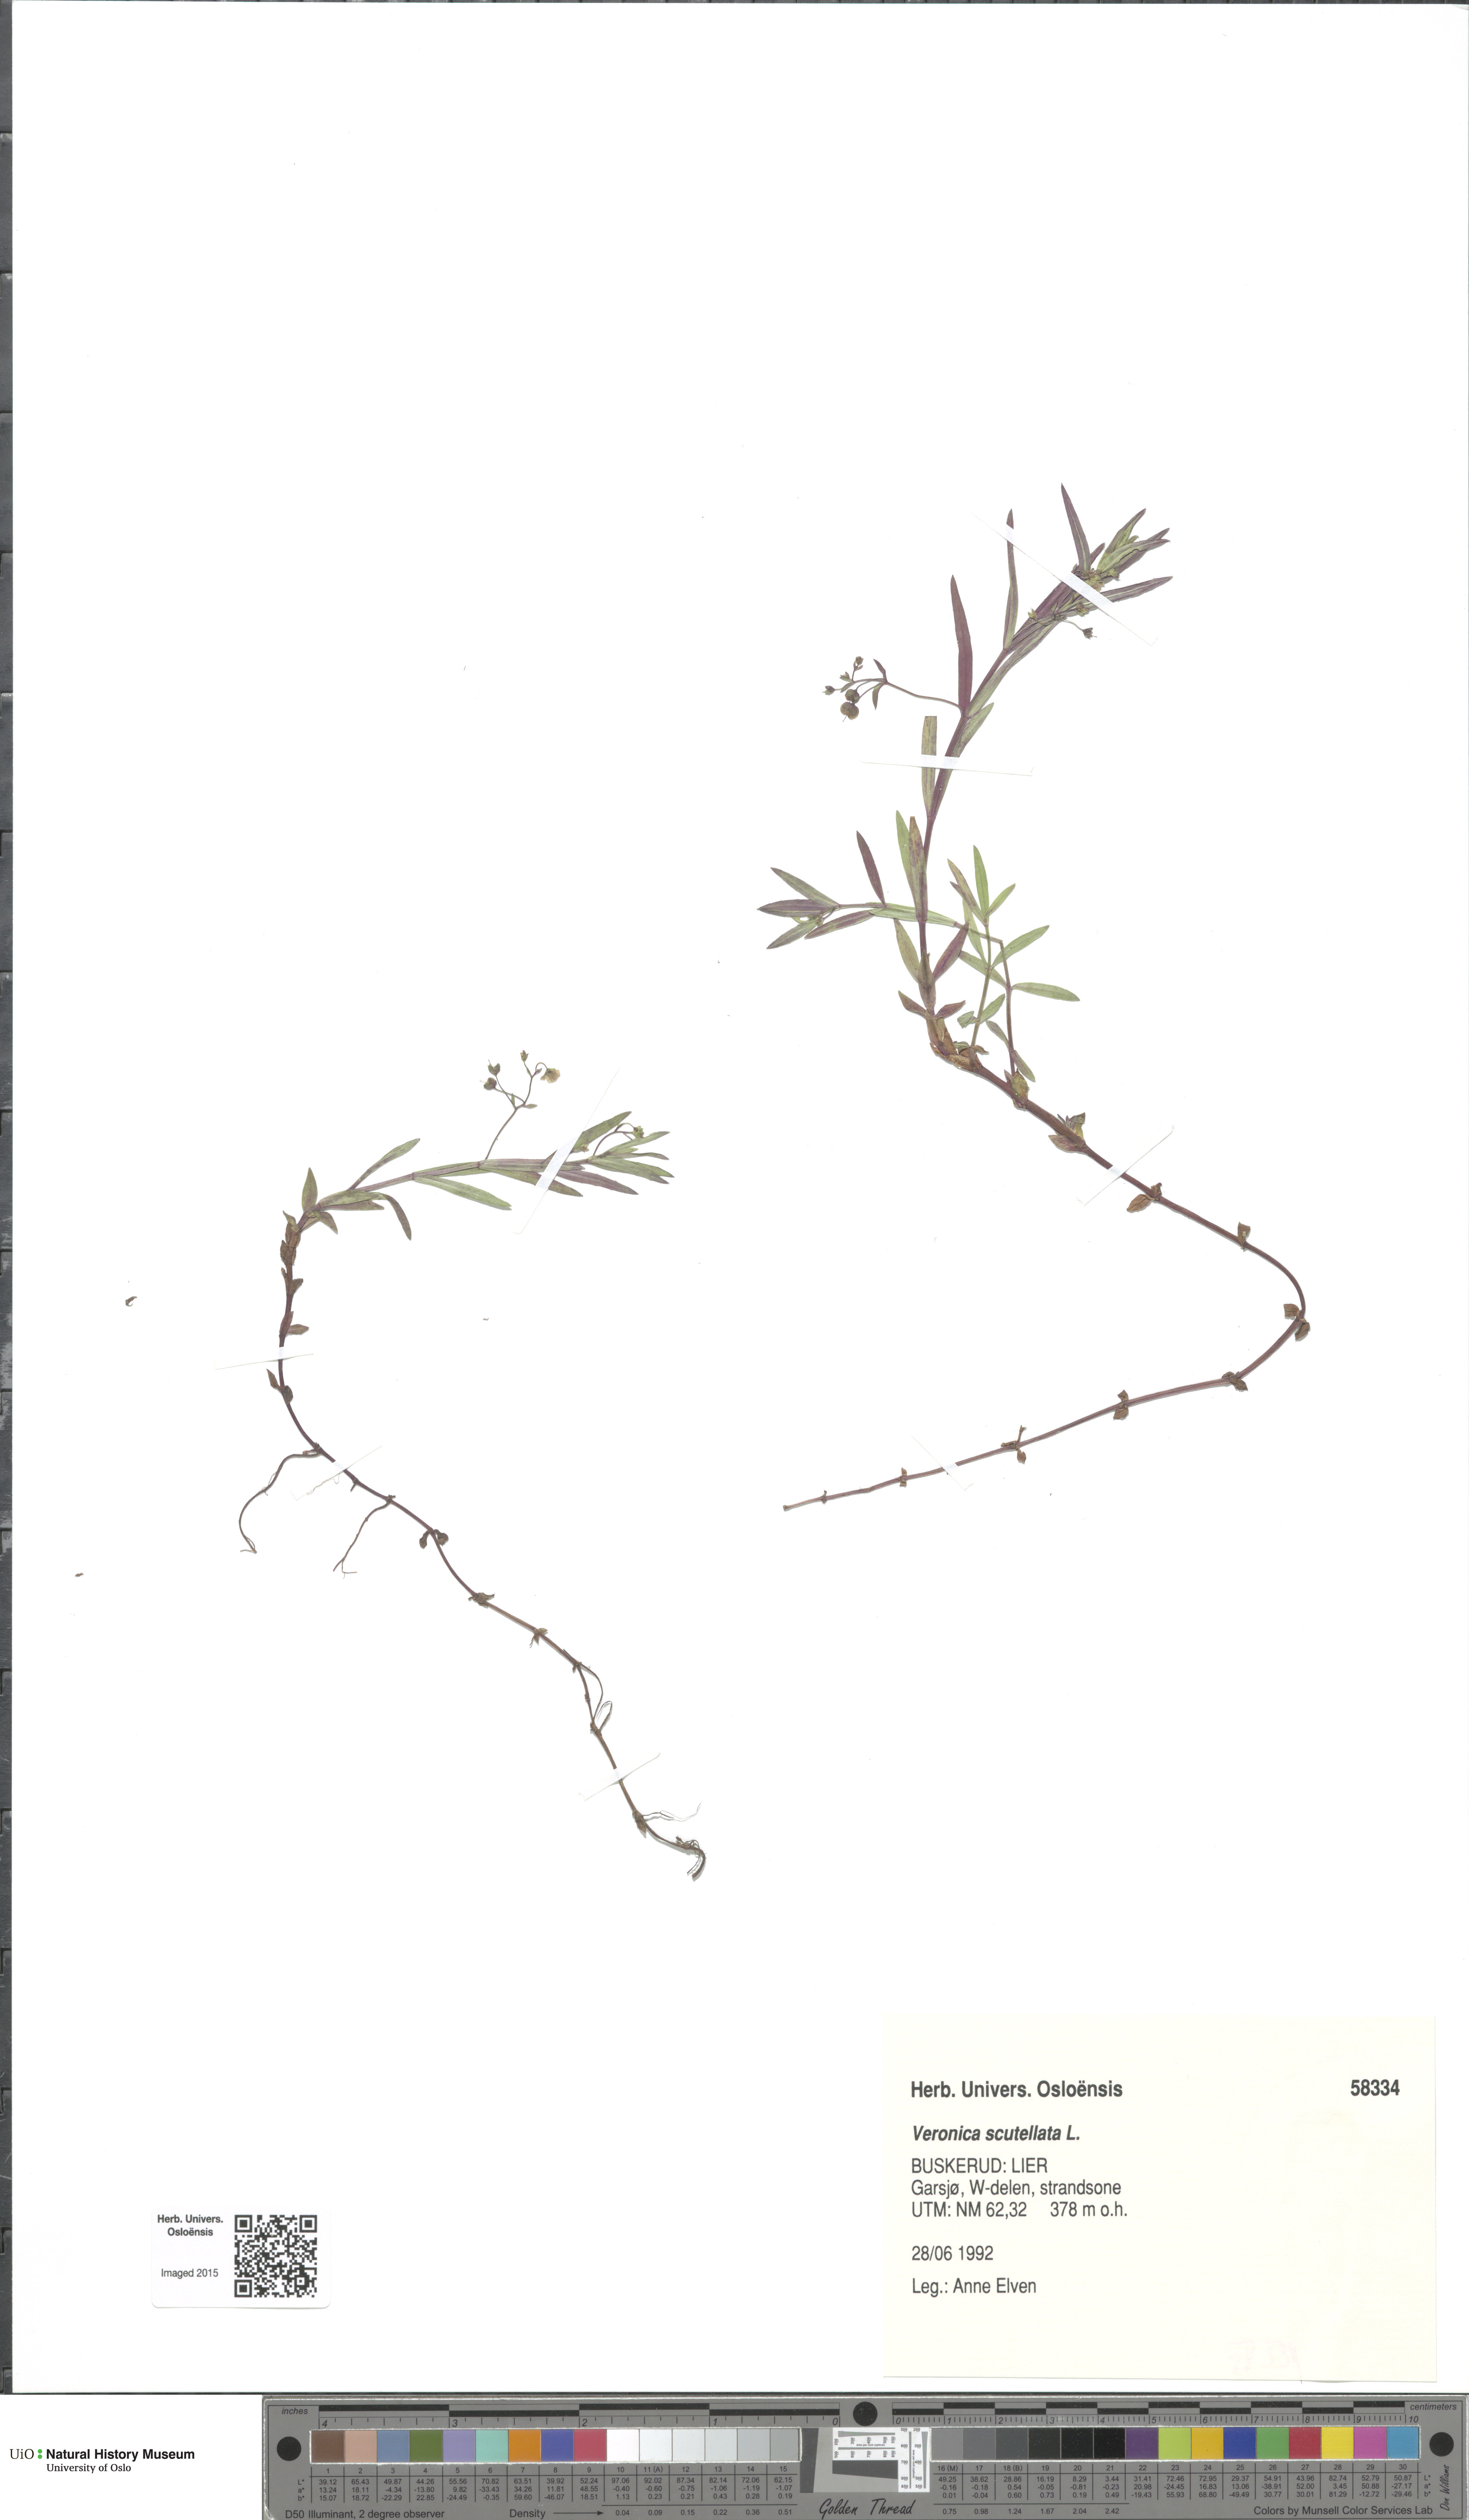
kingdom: Plantae
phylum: Tracheophyta
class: Magnoliopsida
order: Lamiales
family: Plantaginaceae
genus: Veronica
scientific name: Veronica scutellata
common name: Marsh speedwell
